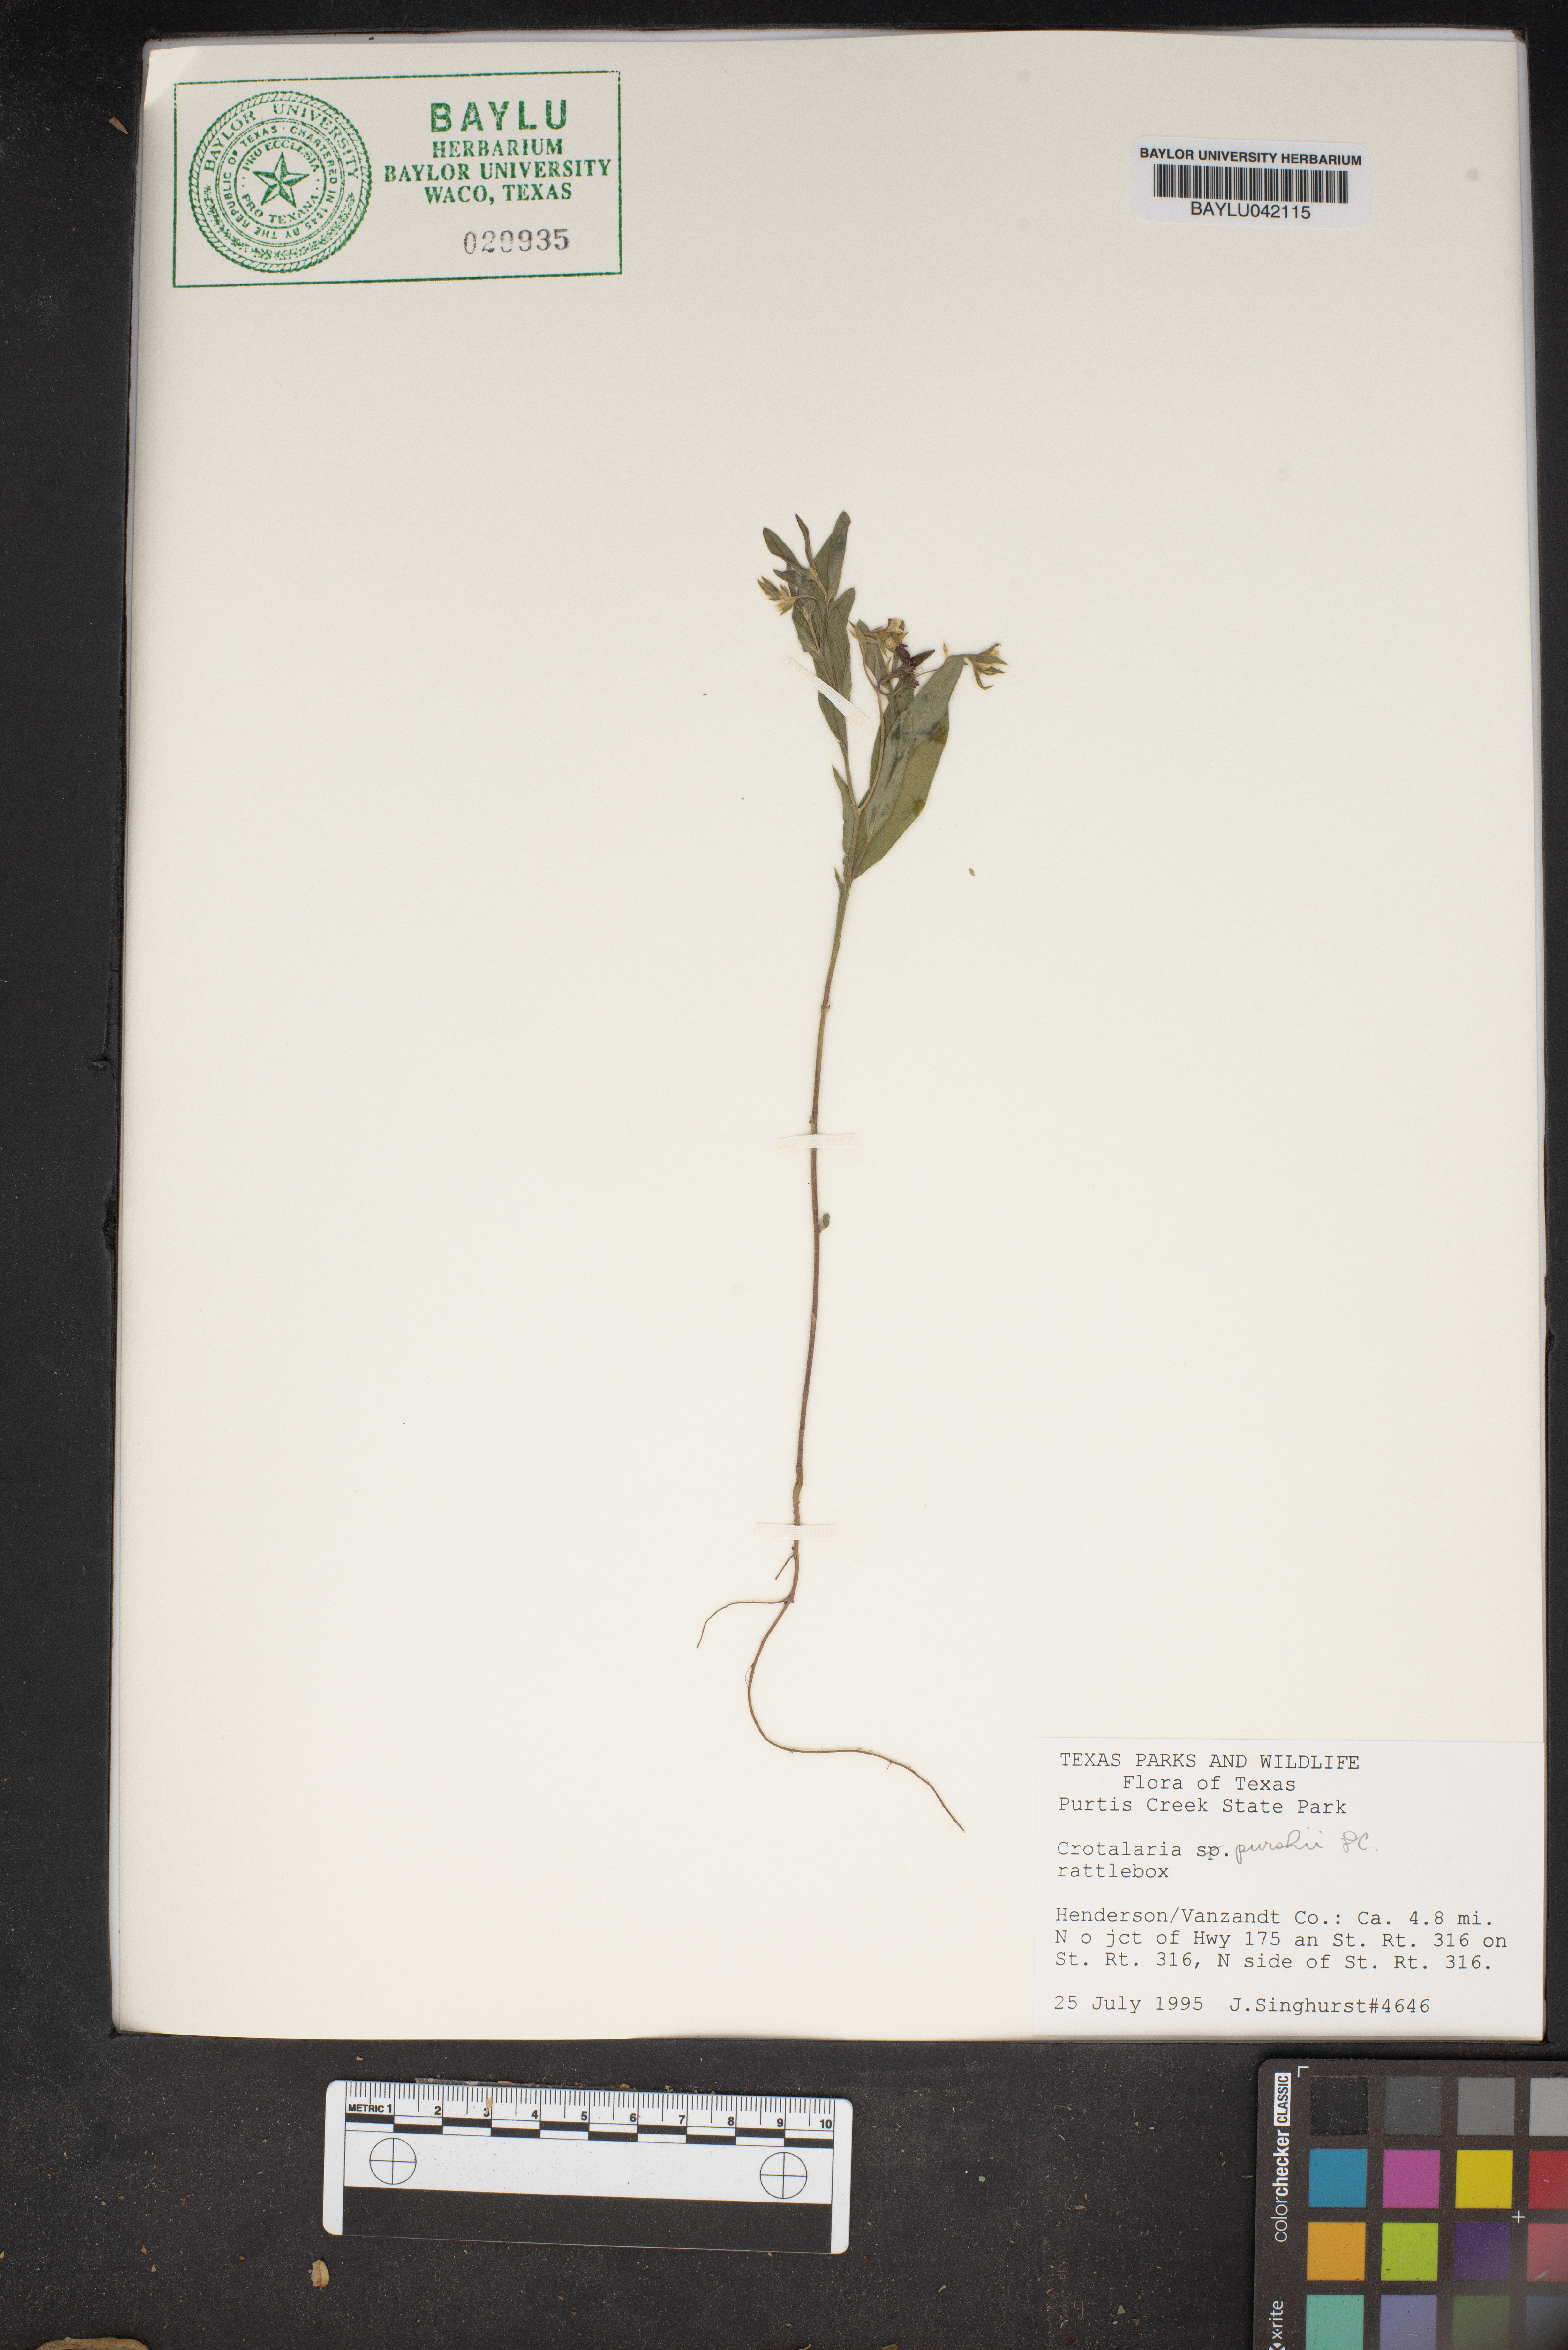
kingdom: Plantae
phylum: Tracheophyta
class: Magnoliopsida
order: Fabales
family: Fabaceae
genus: Crotalaria
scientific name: Crotalaria purshii
